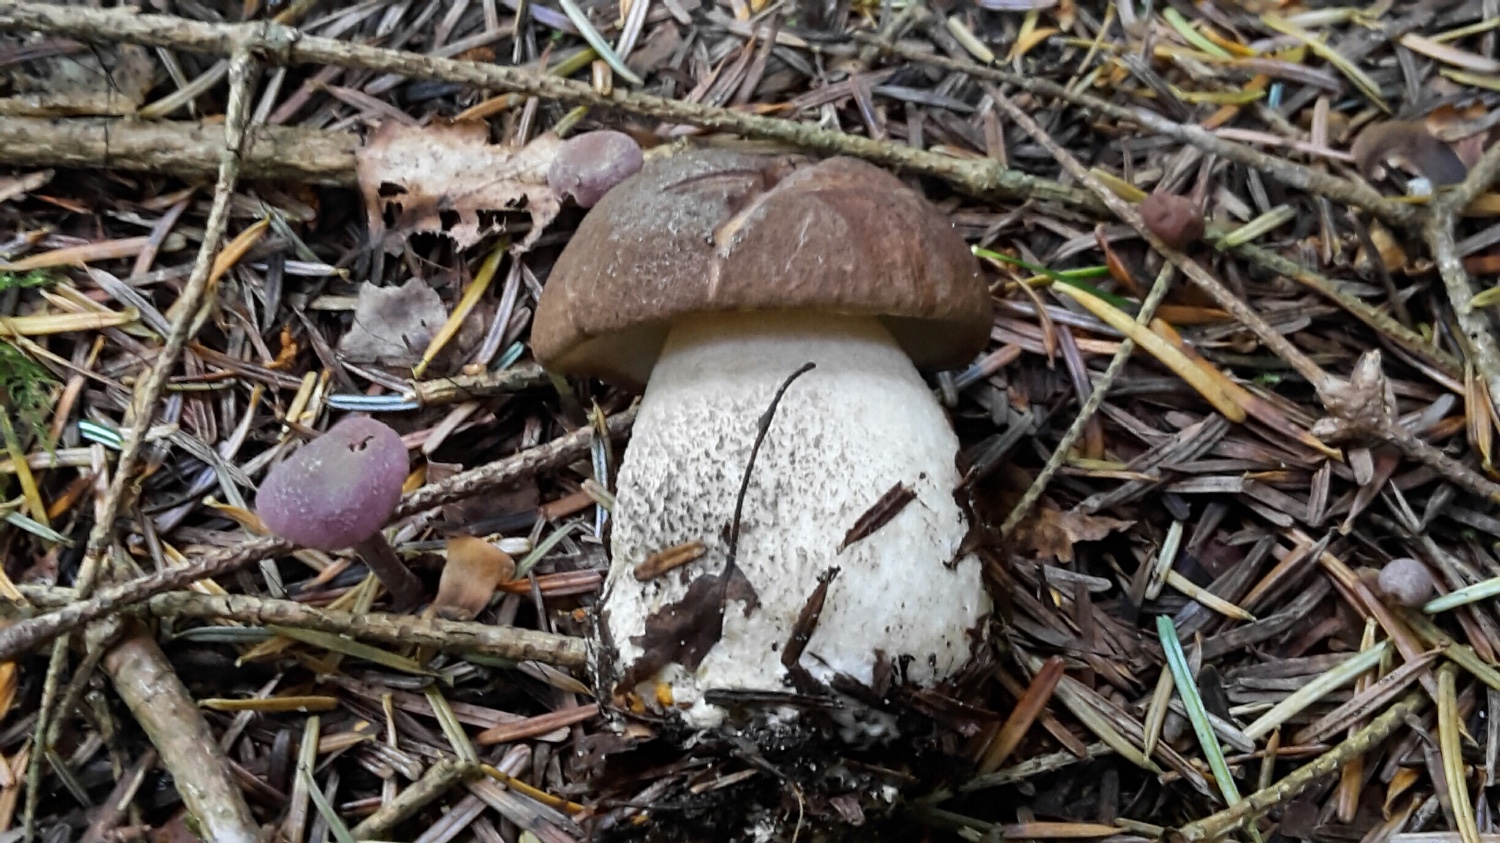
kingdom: Fungi
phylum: Basidiomycota
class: Agaricomycetes
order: Boletales
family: Boletaceae
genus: Leccinum
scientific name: Leccinum scabrum
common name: brun skælrørhat
